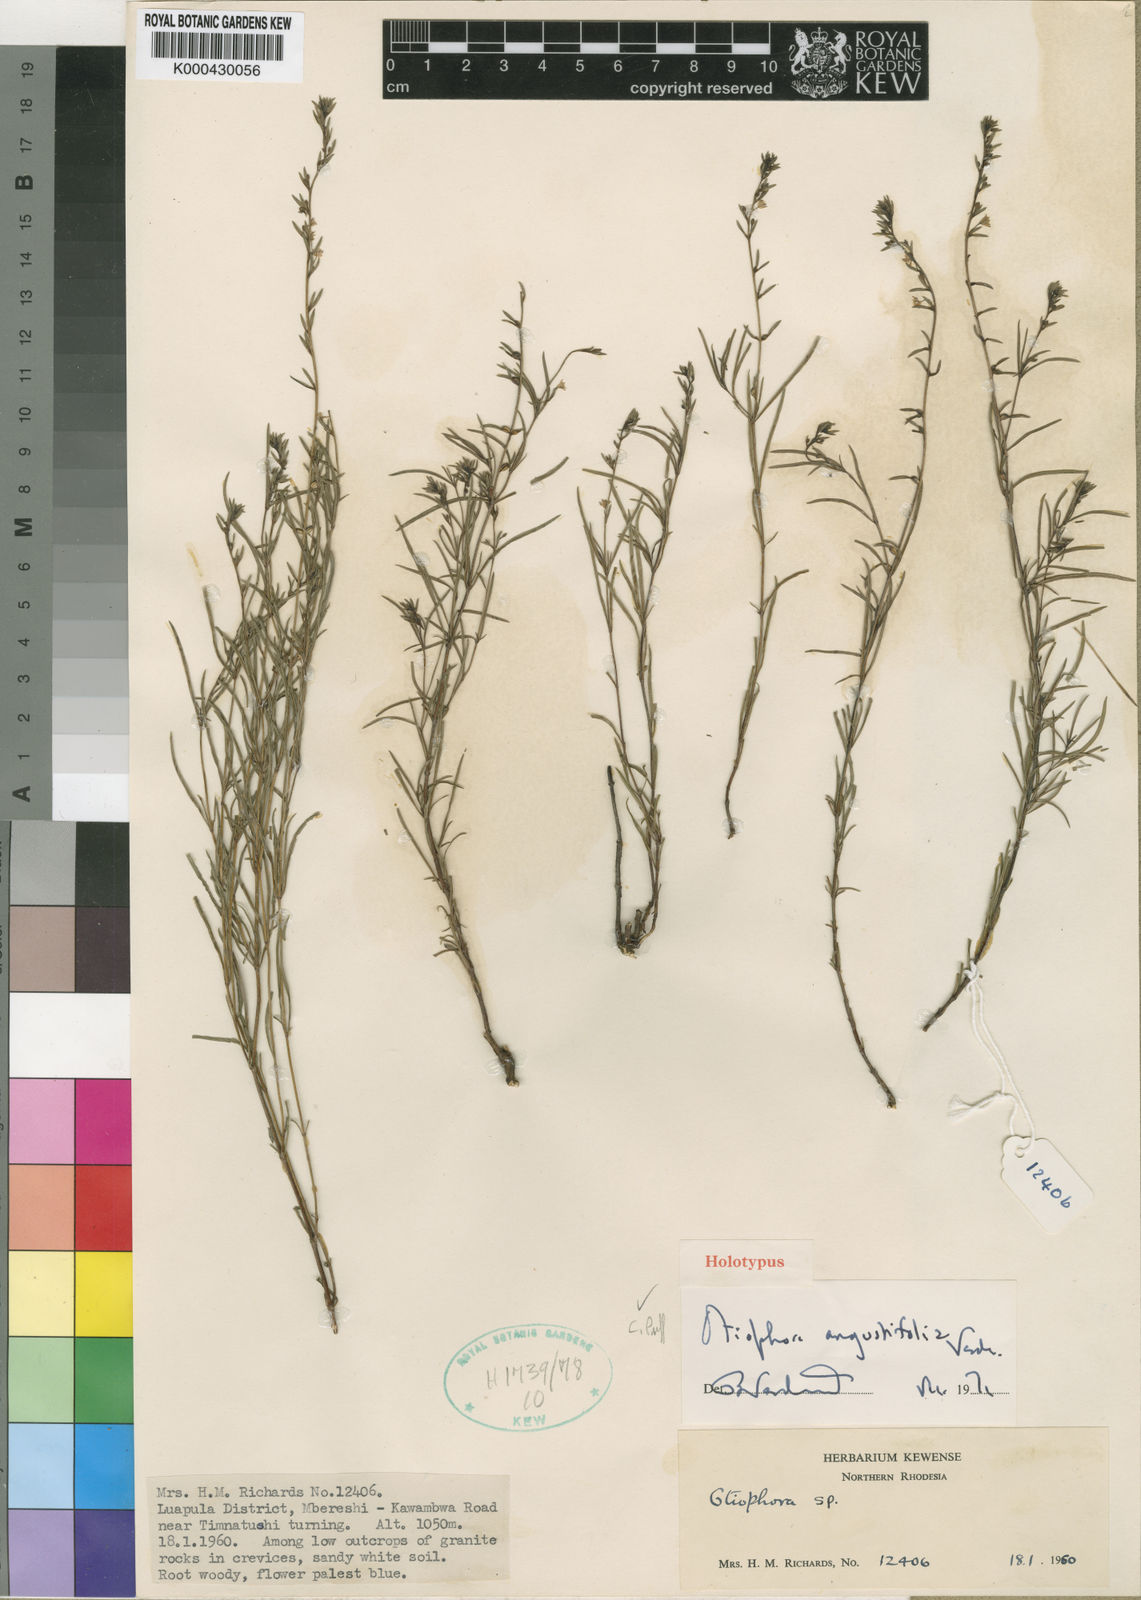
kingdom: Plantae
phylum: Tracheophyta
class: Magnoliopsida
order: Gentianales
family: Rubiaceae
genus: Otiophora
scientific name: Otiophora angustifolia
